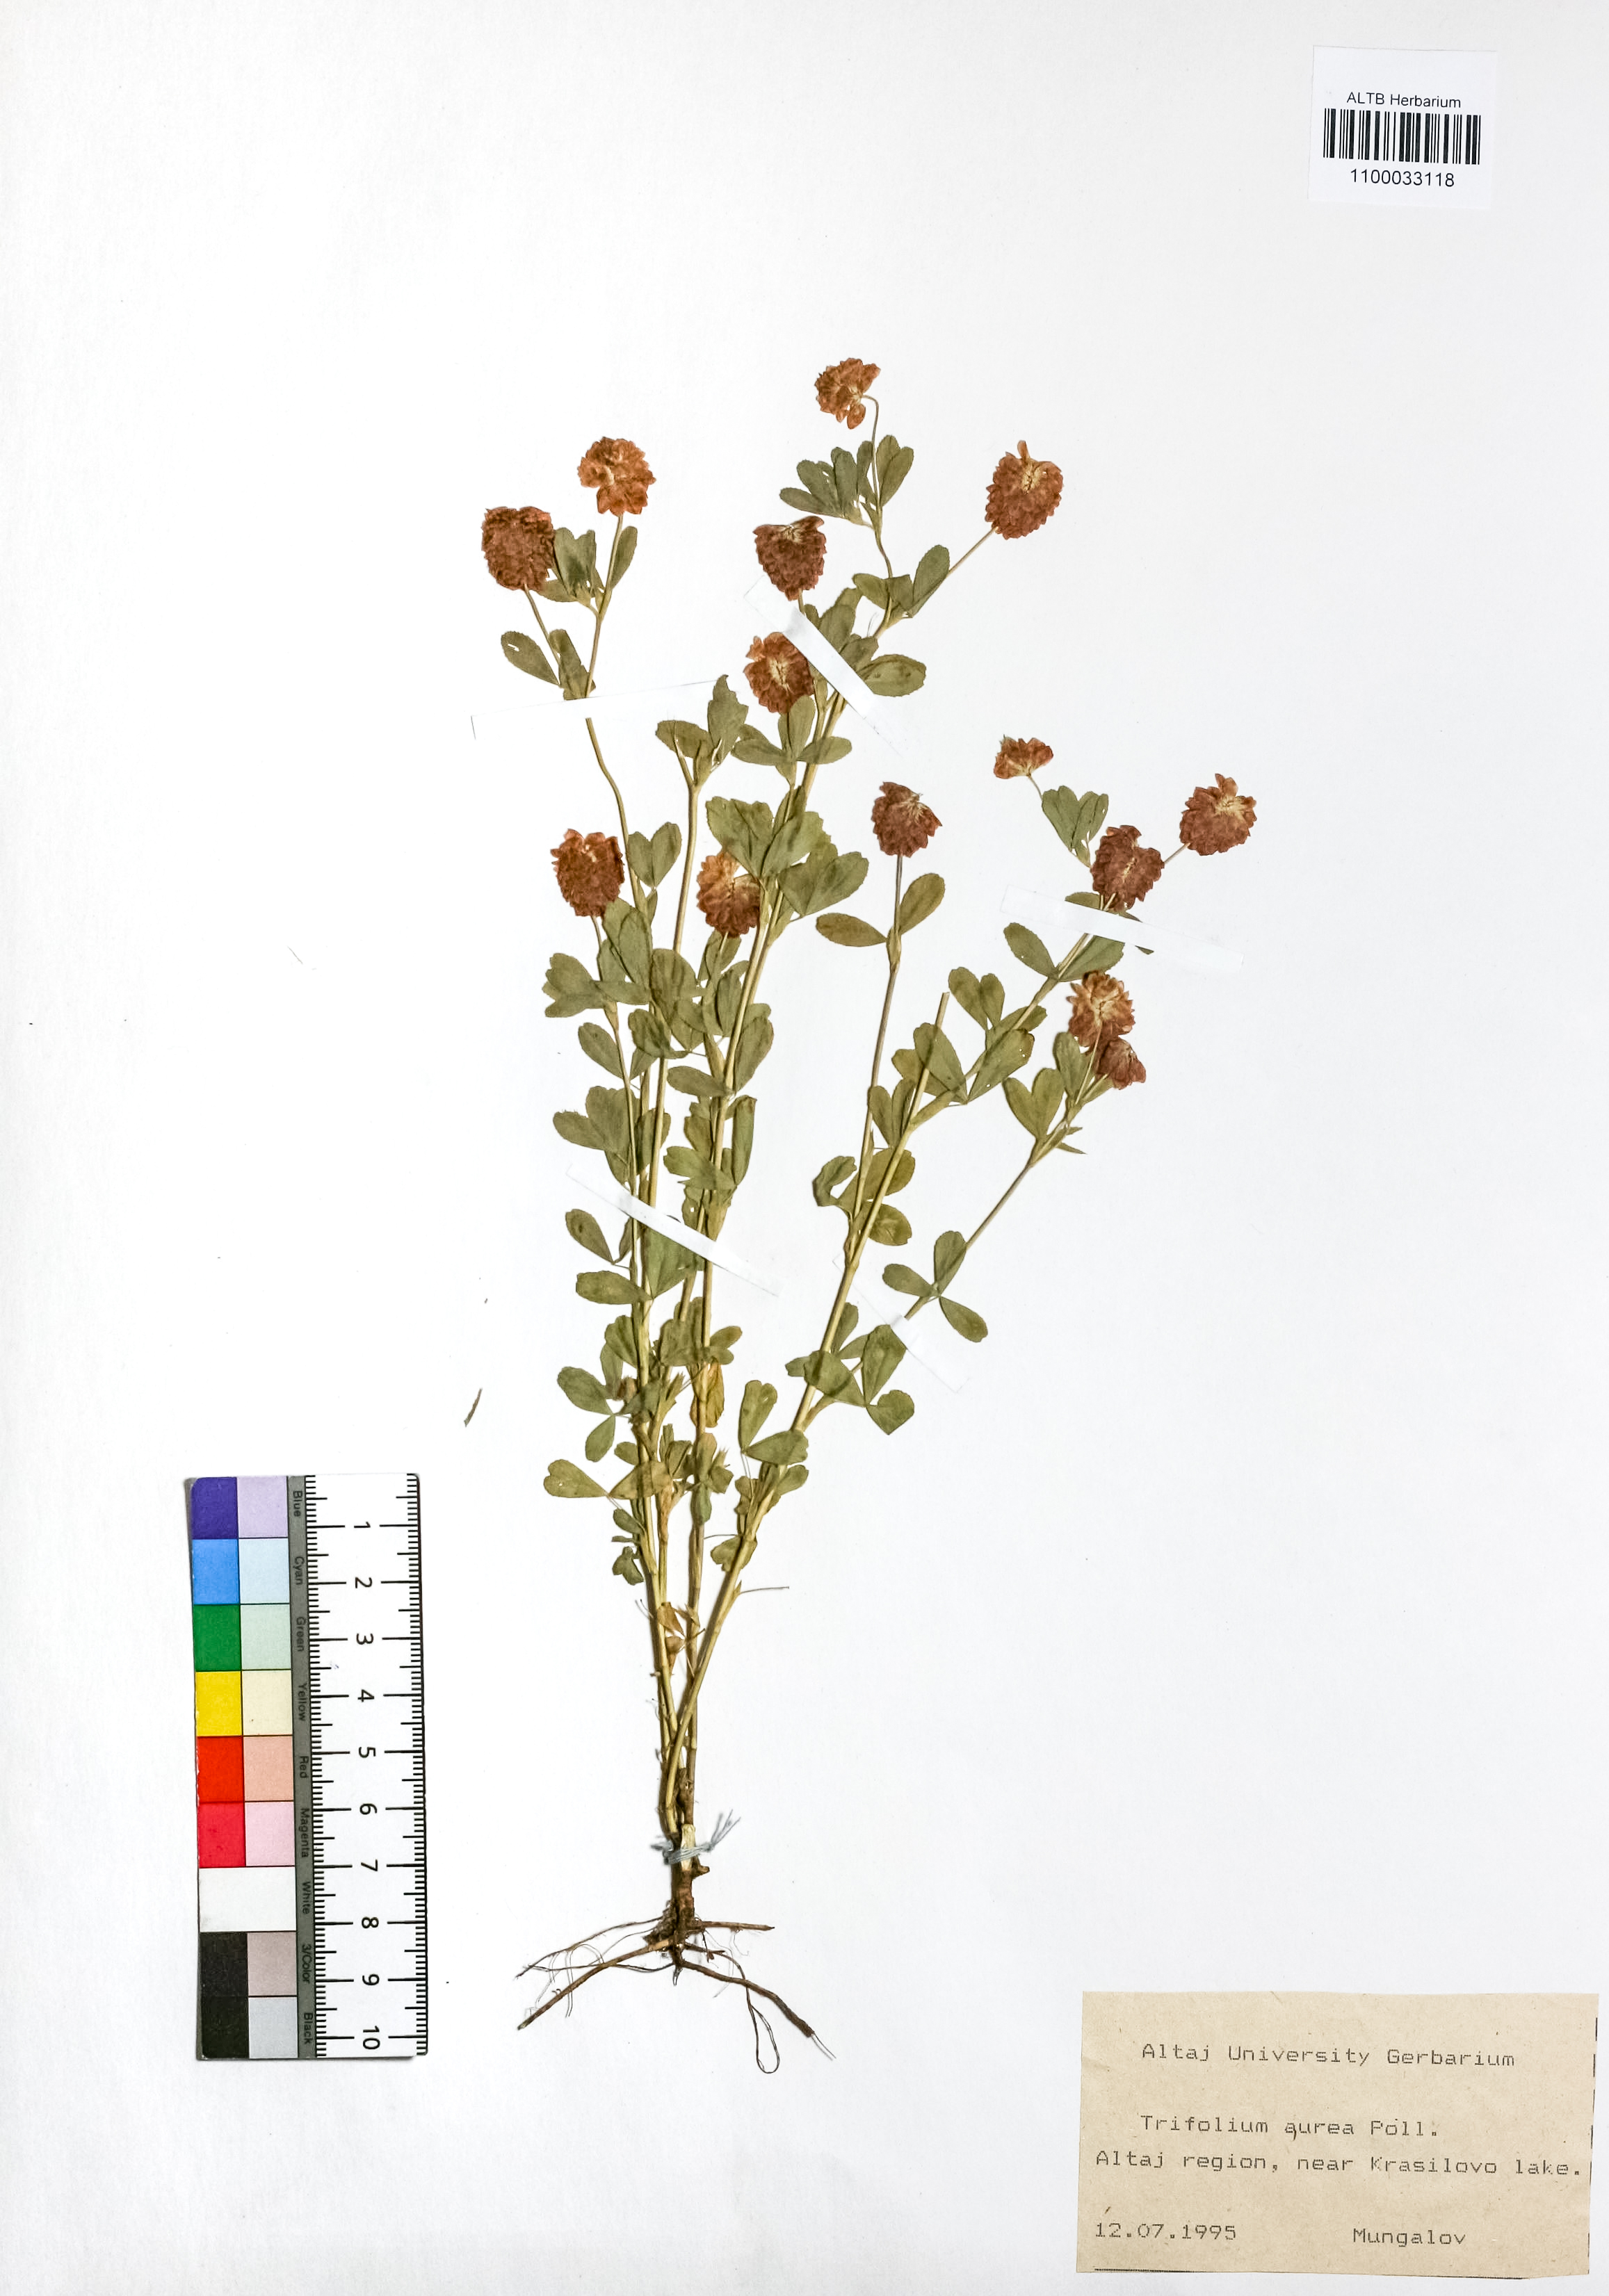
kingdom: Plantae
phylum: Tracheophyta
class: Magnoliopsida
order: Fabales
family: Fabaceae
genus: Trifolium
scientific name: Trifolium aureum
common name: Golden clover
